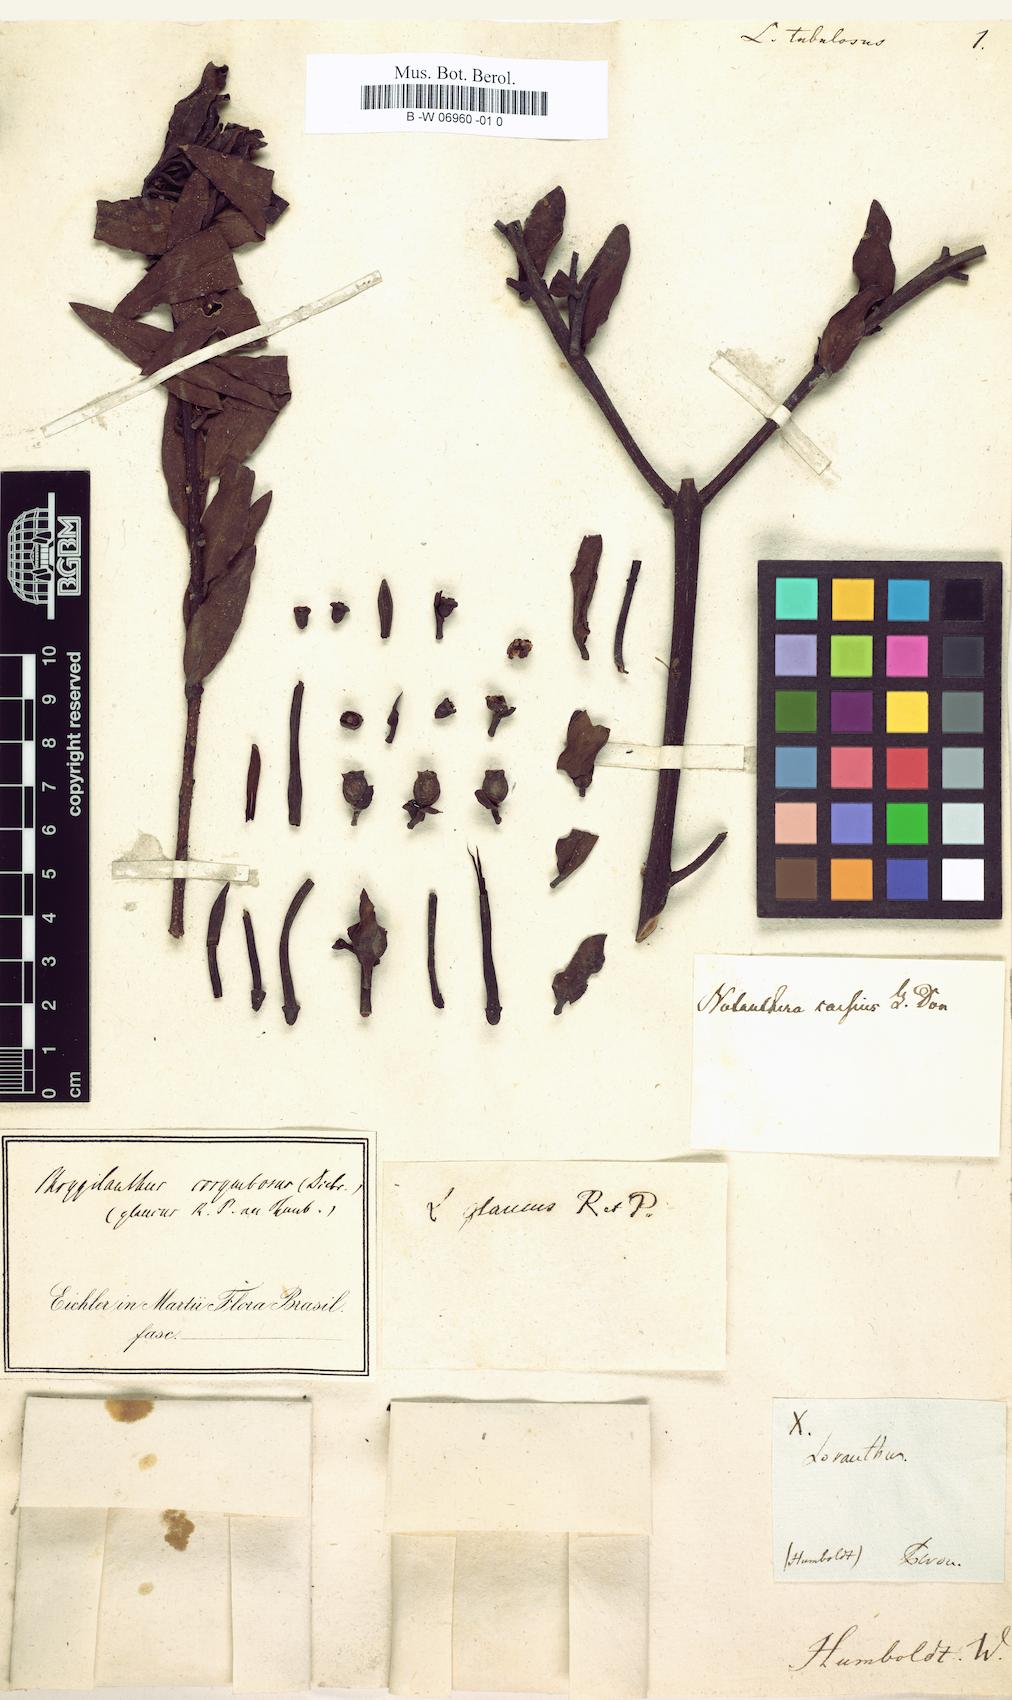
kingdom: Plantae
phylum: Tracheophyta
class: Magnoliopsida
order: Santalales
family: Loranthaceae
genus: Tristerix
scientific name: Tristerix longebracteatus
